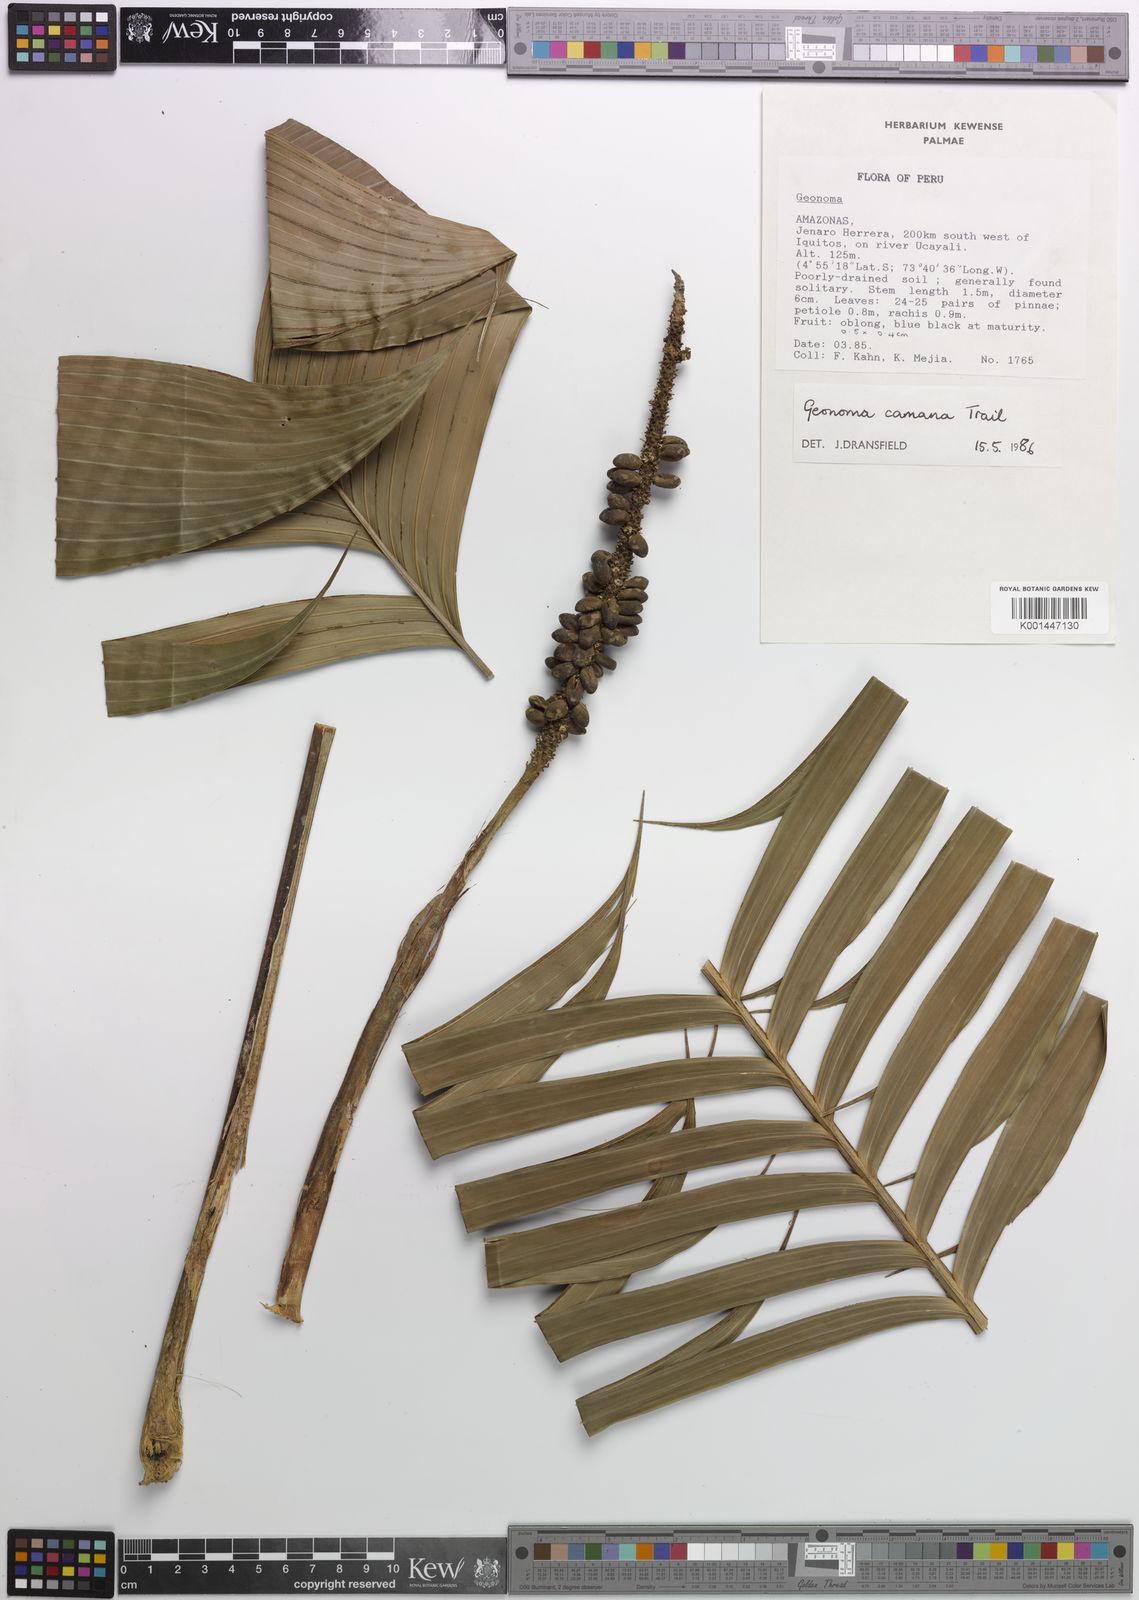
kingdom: Plantae
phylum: Tracheophyta
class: Liliopsida
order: Arecales
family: Arecaceae
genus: Geonoma
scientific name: Geonoma camana
